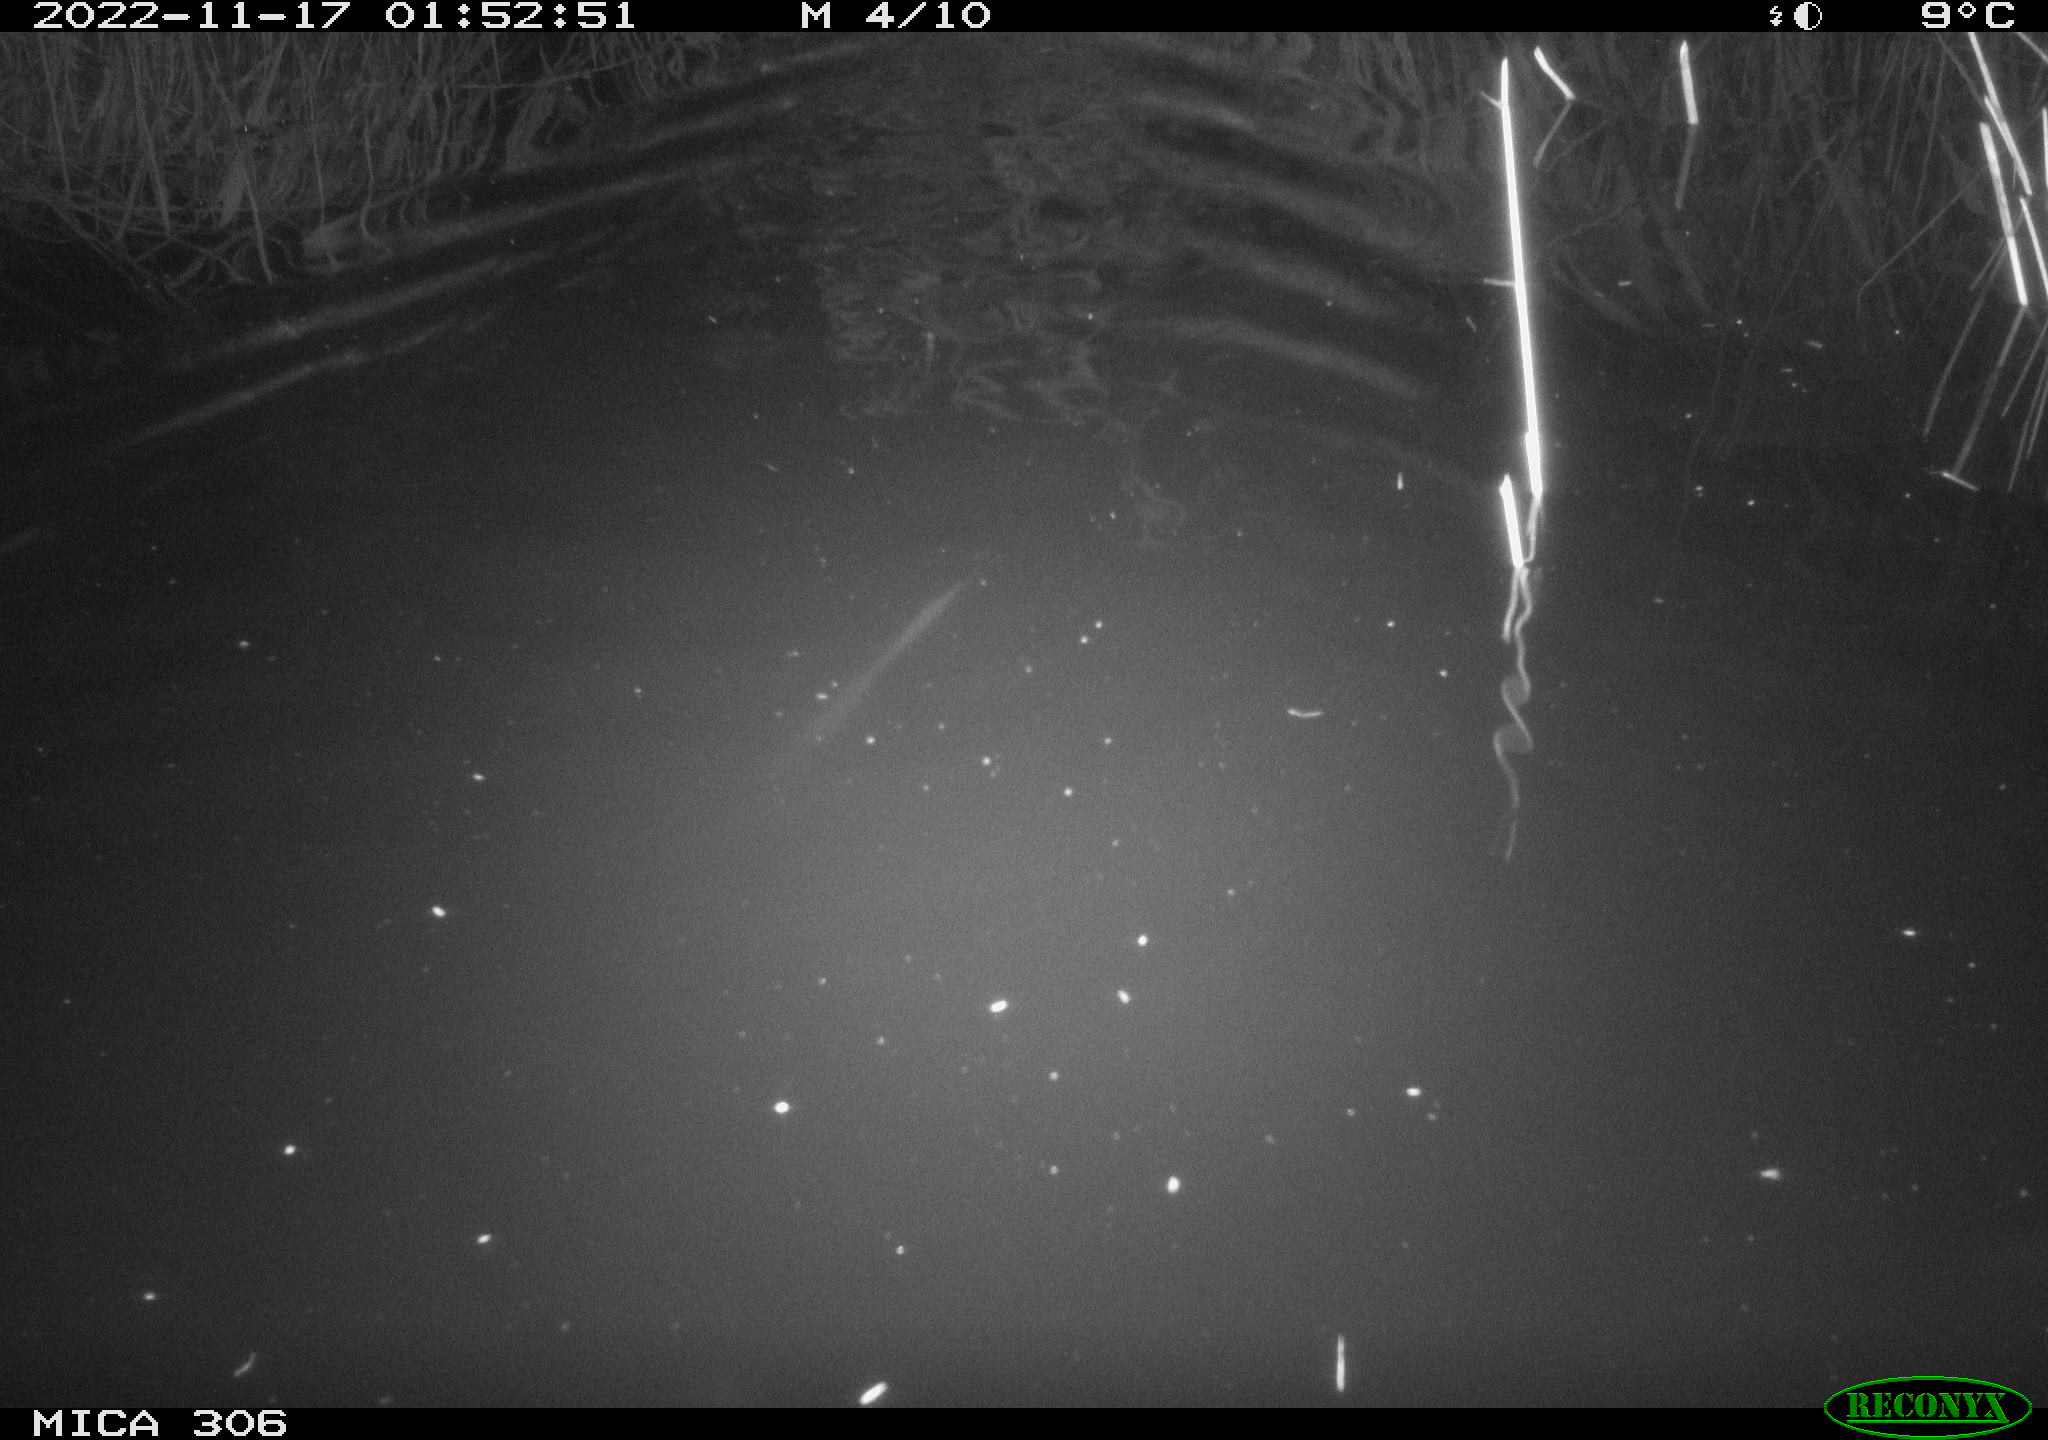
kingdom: Animalia
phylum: Chordata
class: Mammalia
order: Rodentia
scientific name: Rodentia
